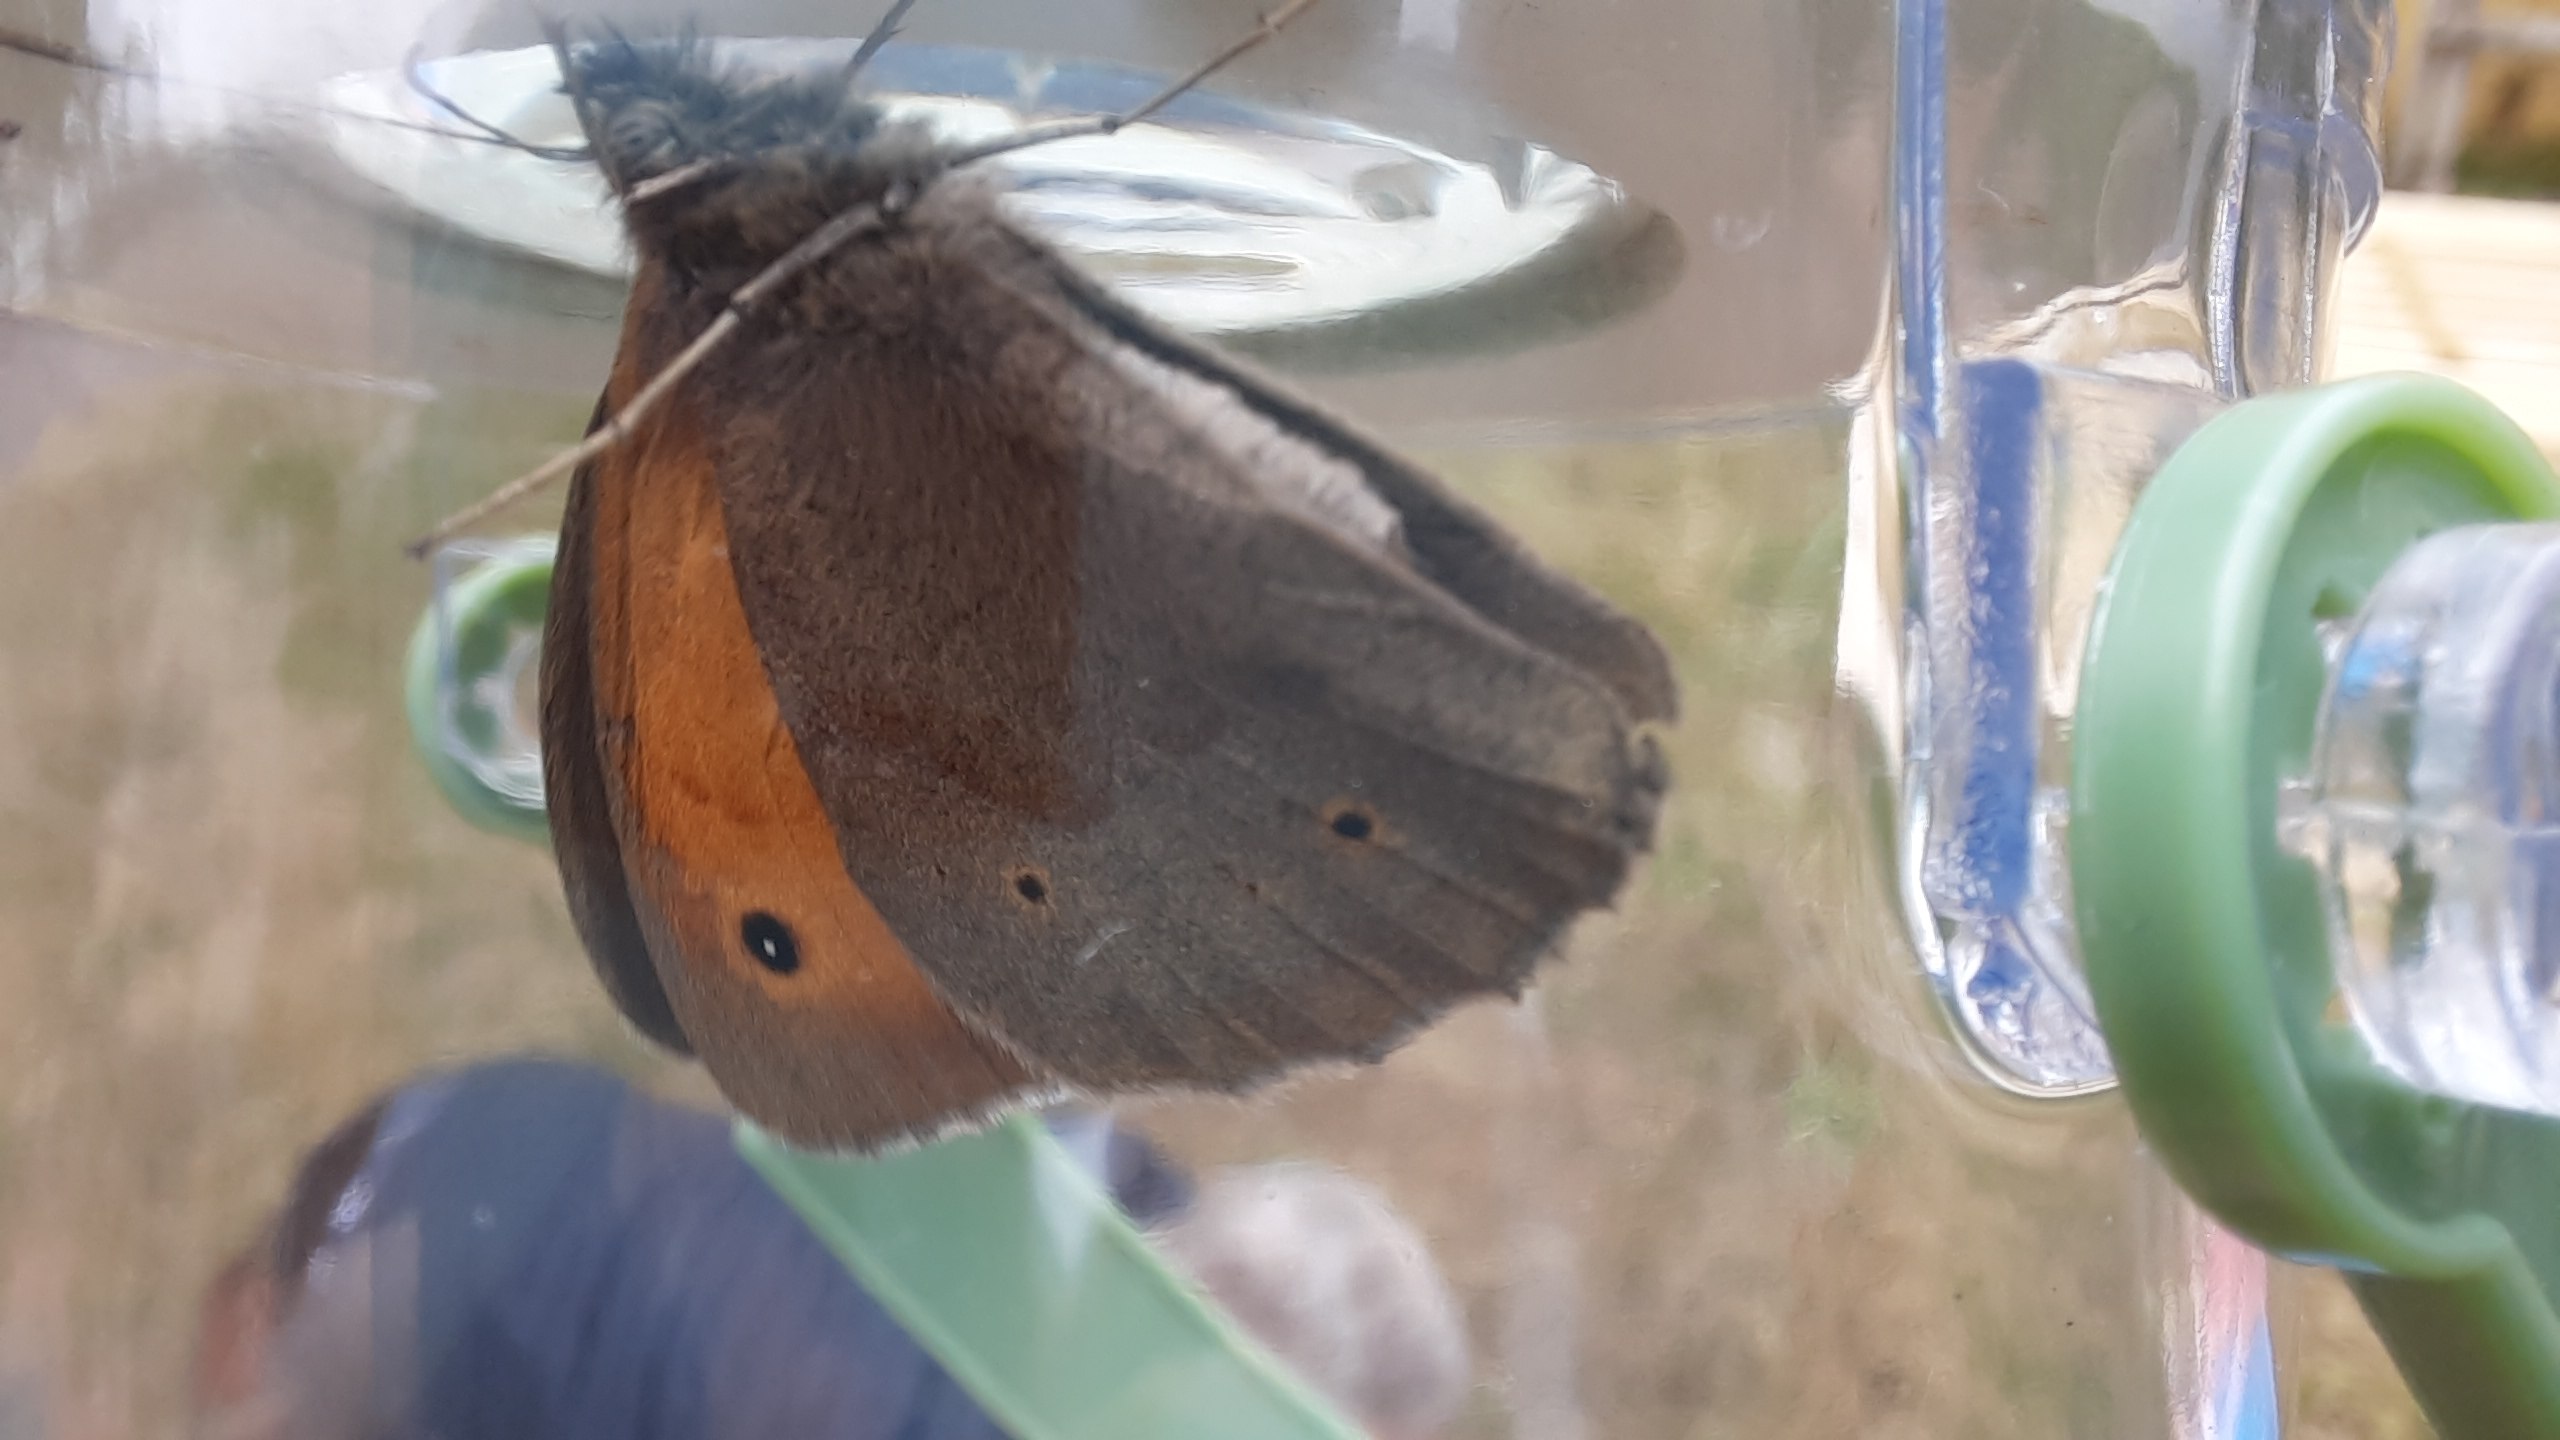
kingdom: Animalia
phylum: Arthropoda
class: Insecta
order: Lepidoptera
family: Nymphalidae
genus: Maniola
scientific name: Maniola jurtina
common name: Græsrandøje
